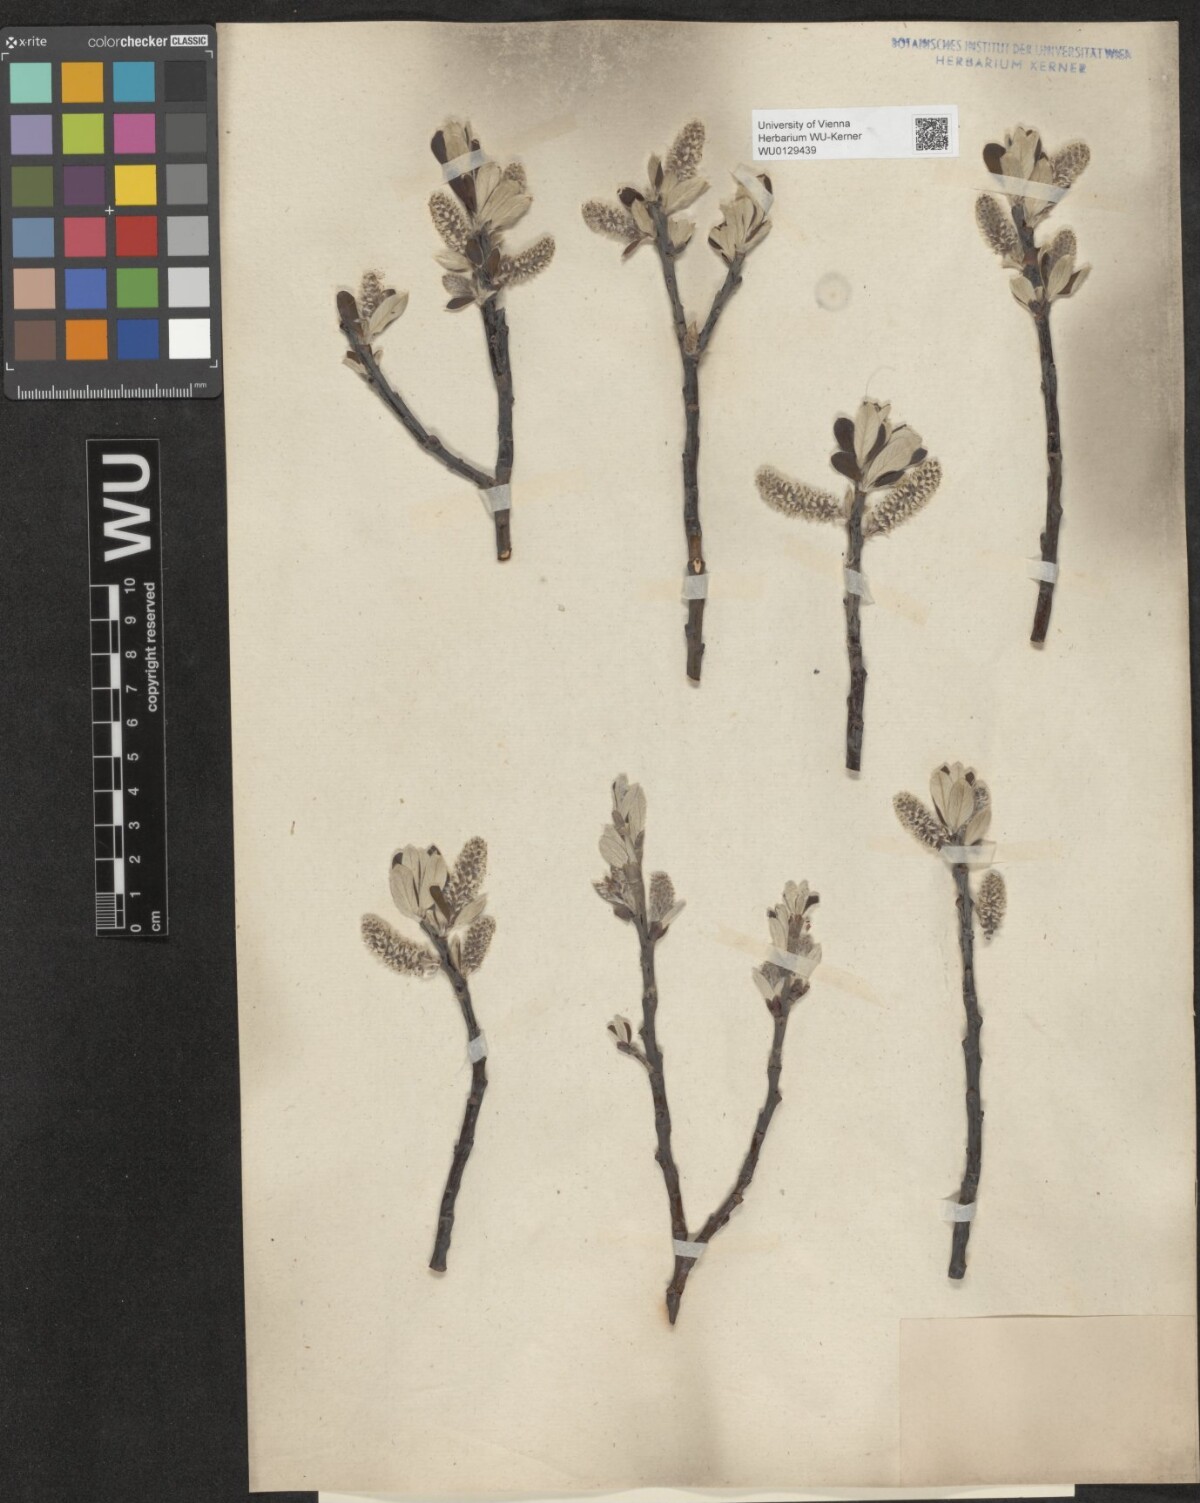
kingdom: Plantae
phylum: Tracheophyta
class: Magnoliopsida
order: Malpighiales
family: Salicaceae
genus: Salix
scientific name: Salix helvetica
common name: Swiss willow
